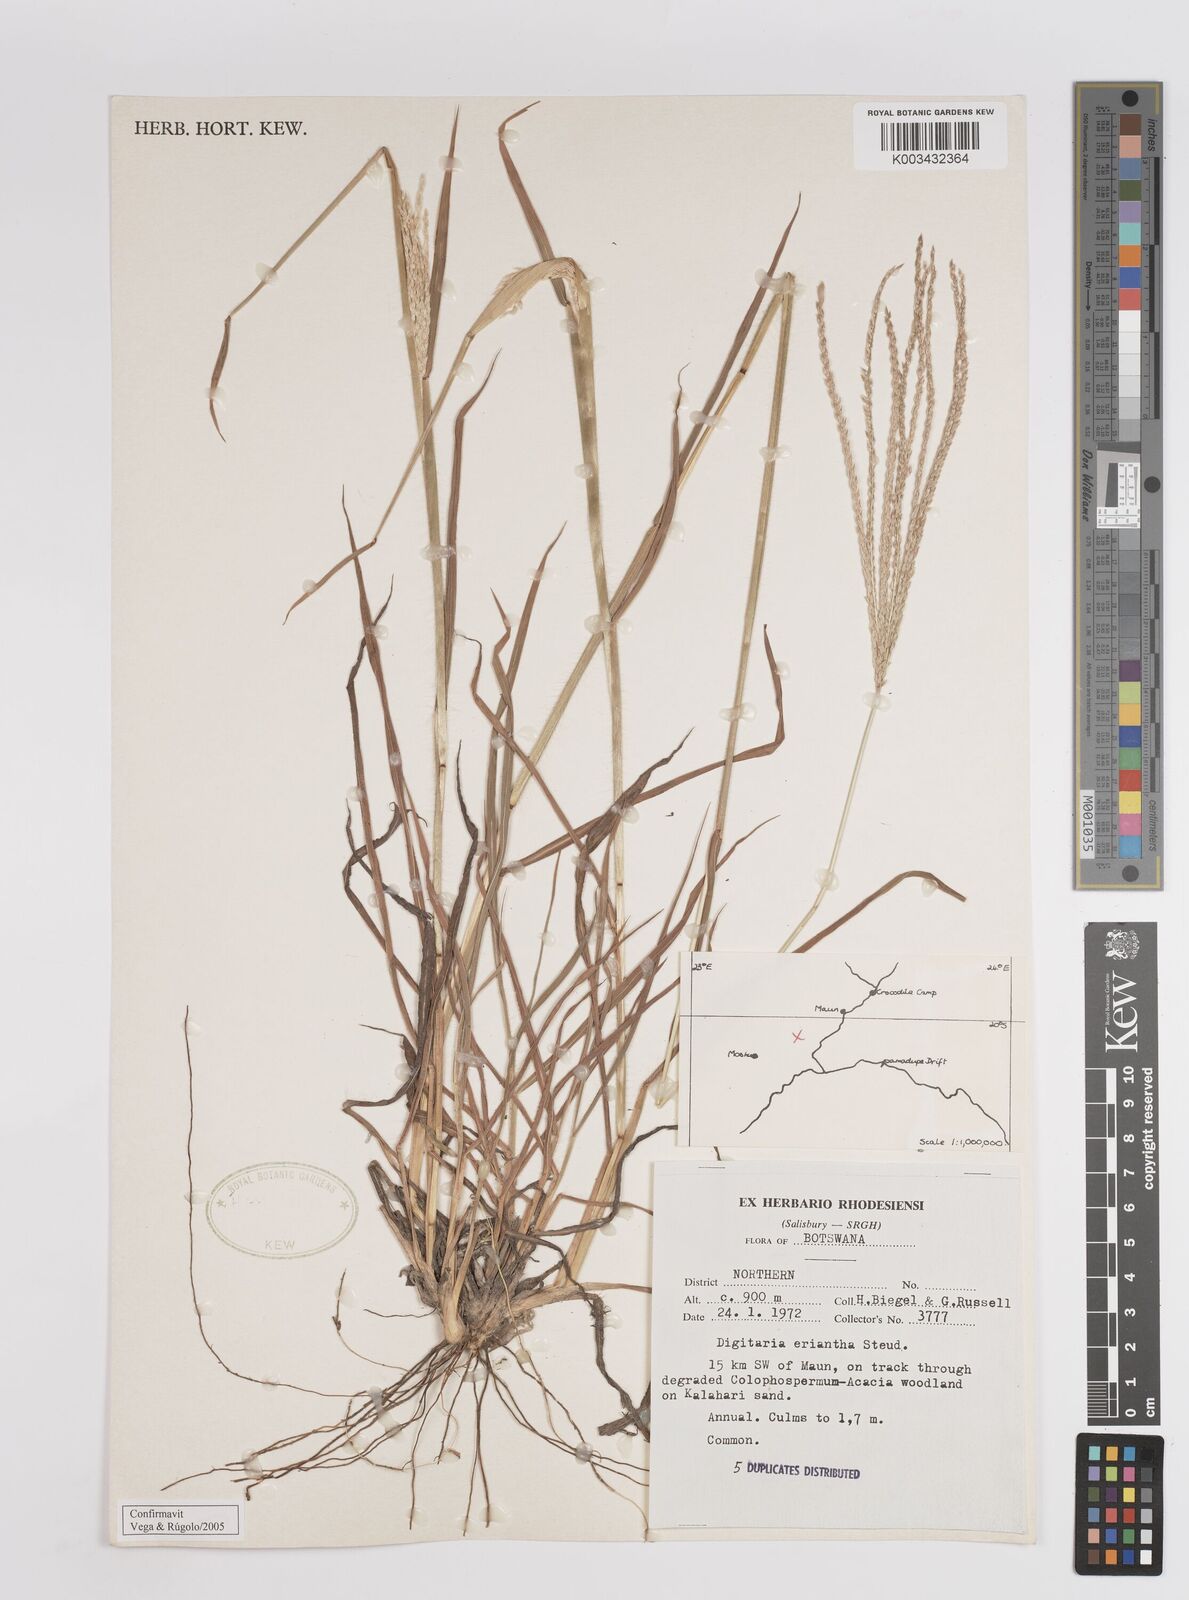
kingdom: Plantae
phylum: Tracheophyta
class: Liliopsida
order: Poales
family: Poaceae
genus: Digitaria
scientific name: Digitaria eriantha
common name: Digitgrass
